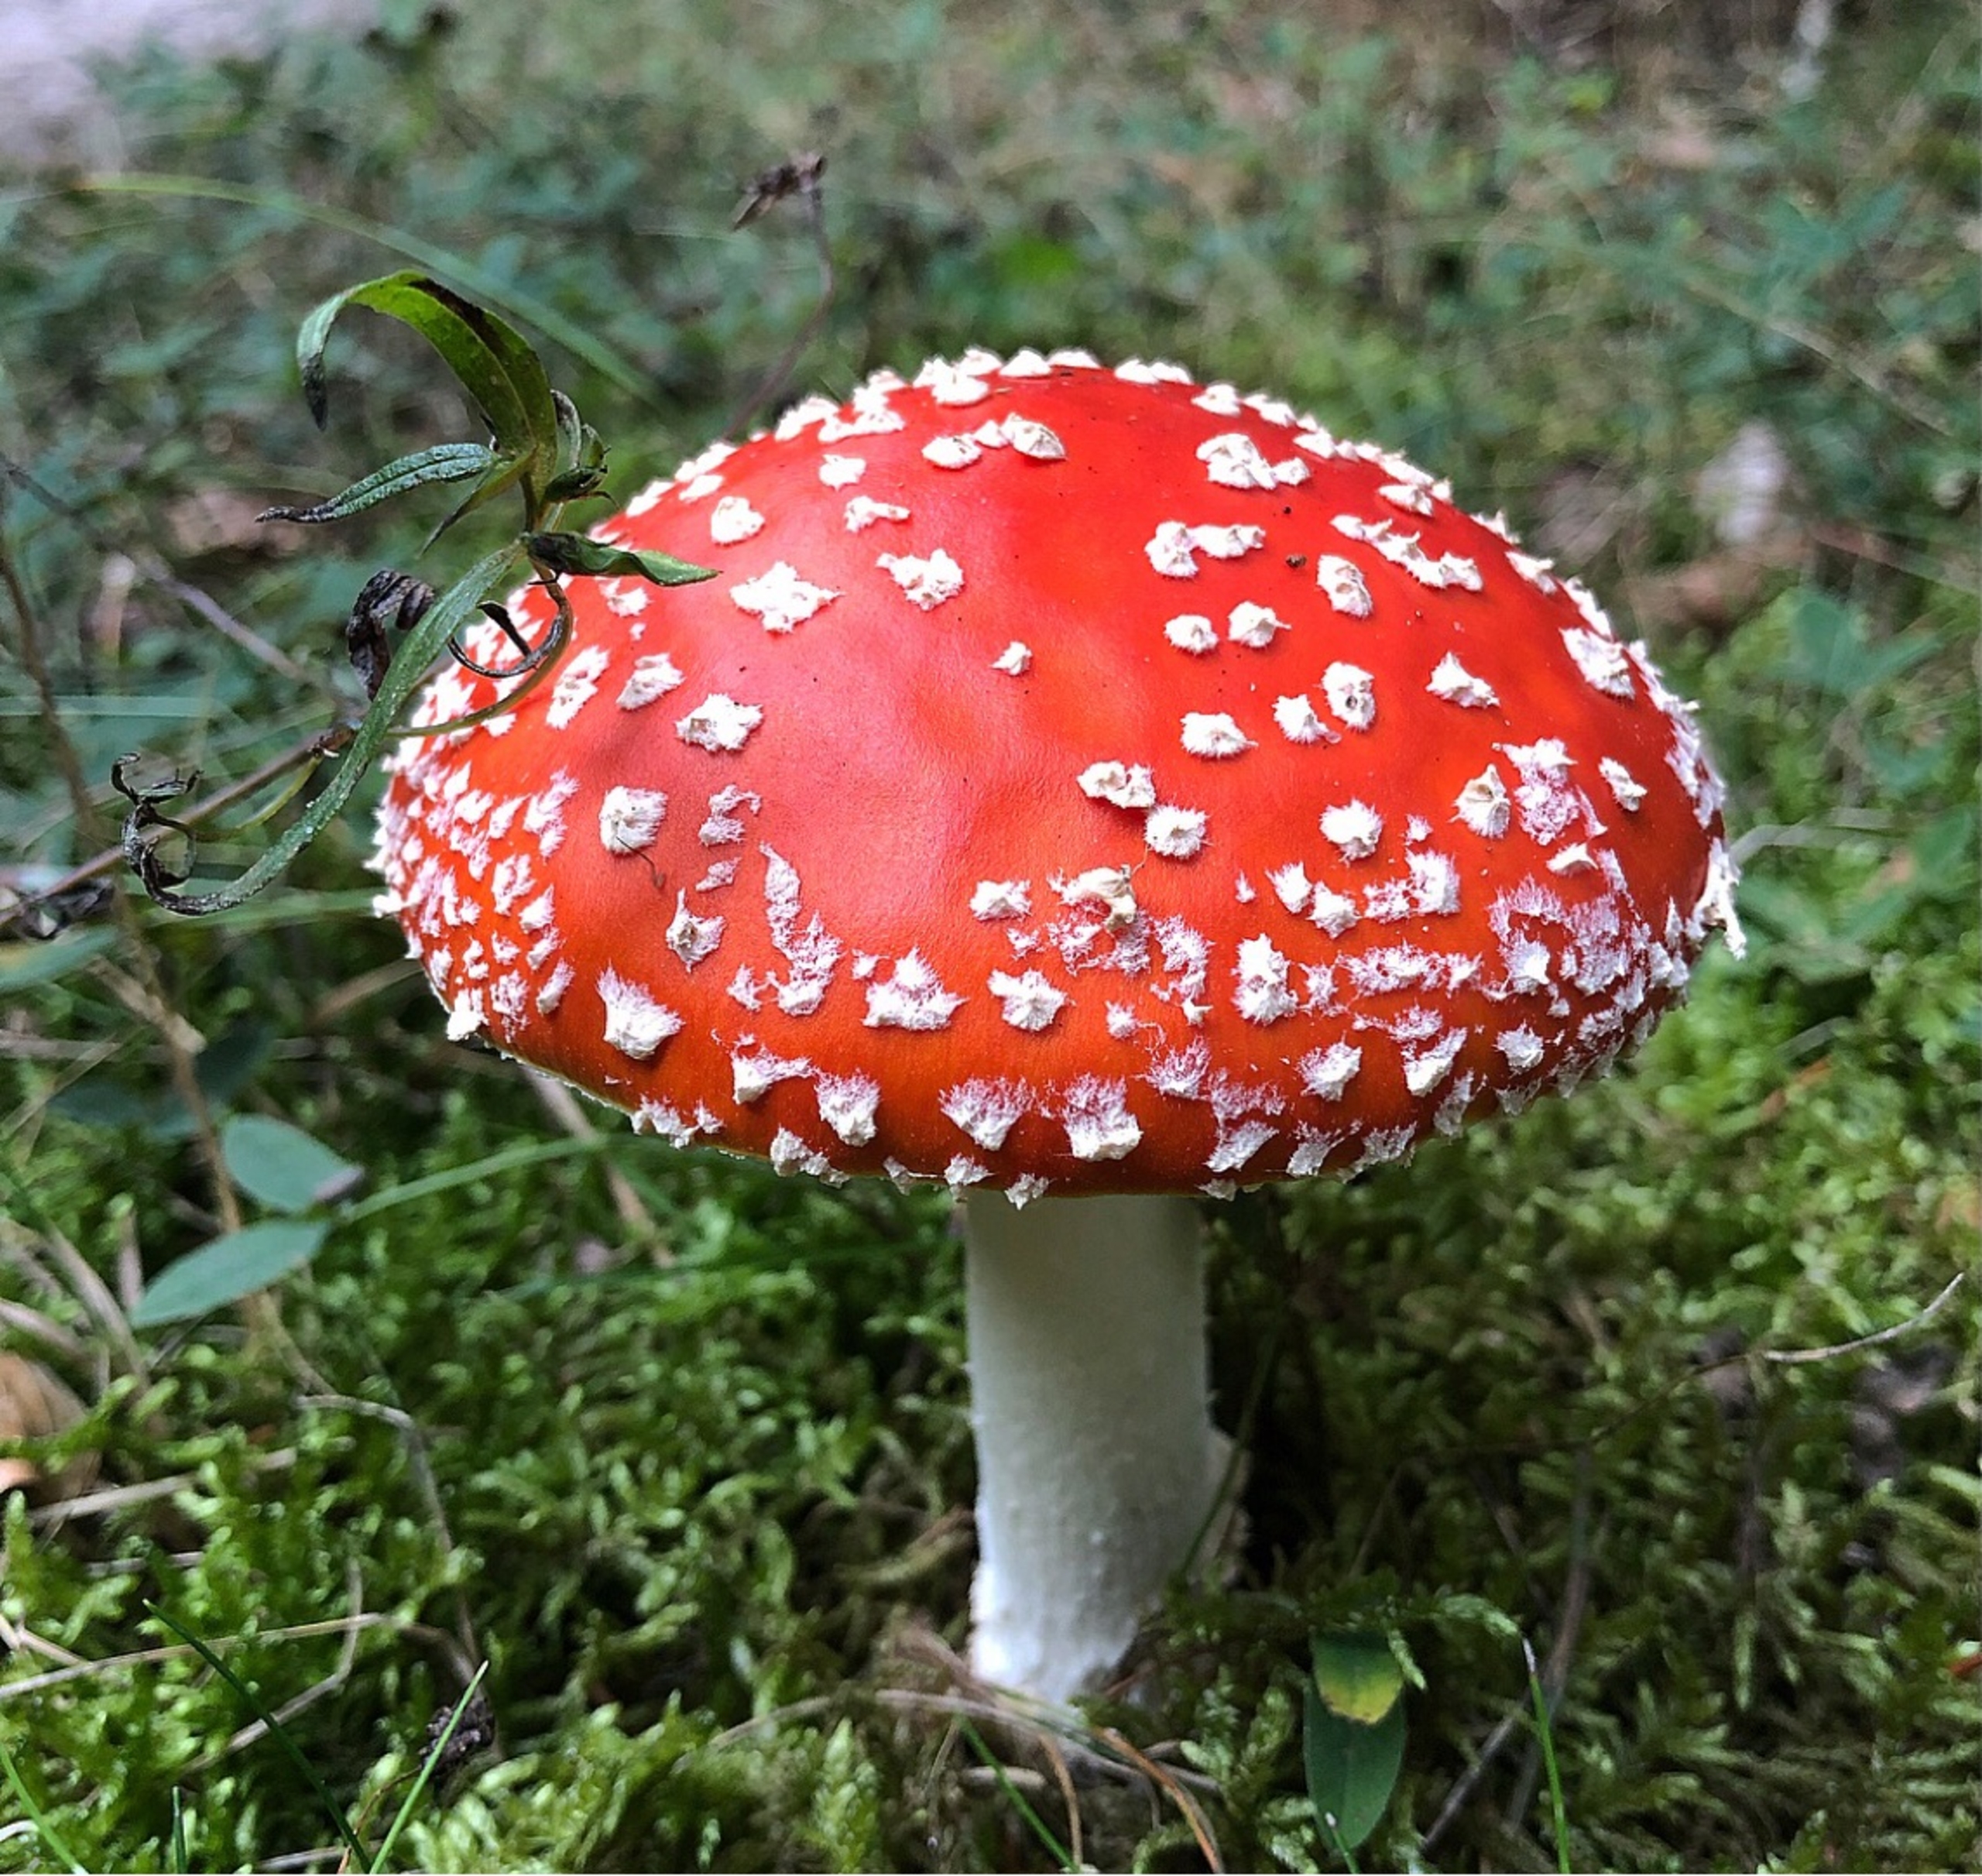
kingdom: Fungi
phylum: Basidiomycota
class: Agaricomycetes
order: Agaricales
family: Amanitaceae
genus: Amanita
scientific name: Amanita muscaria
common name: Rød fluesvamp
